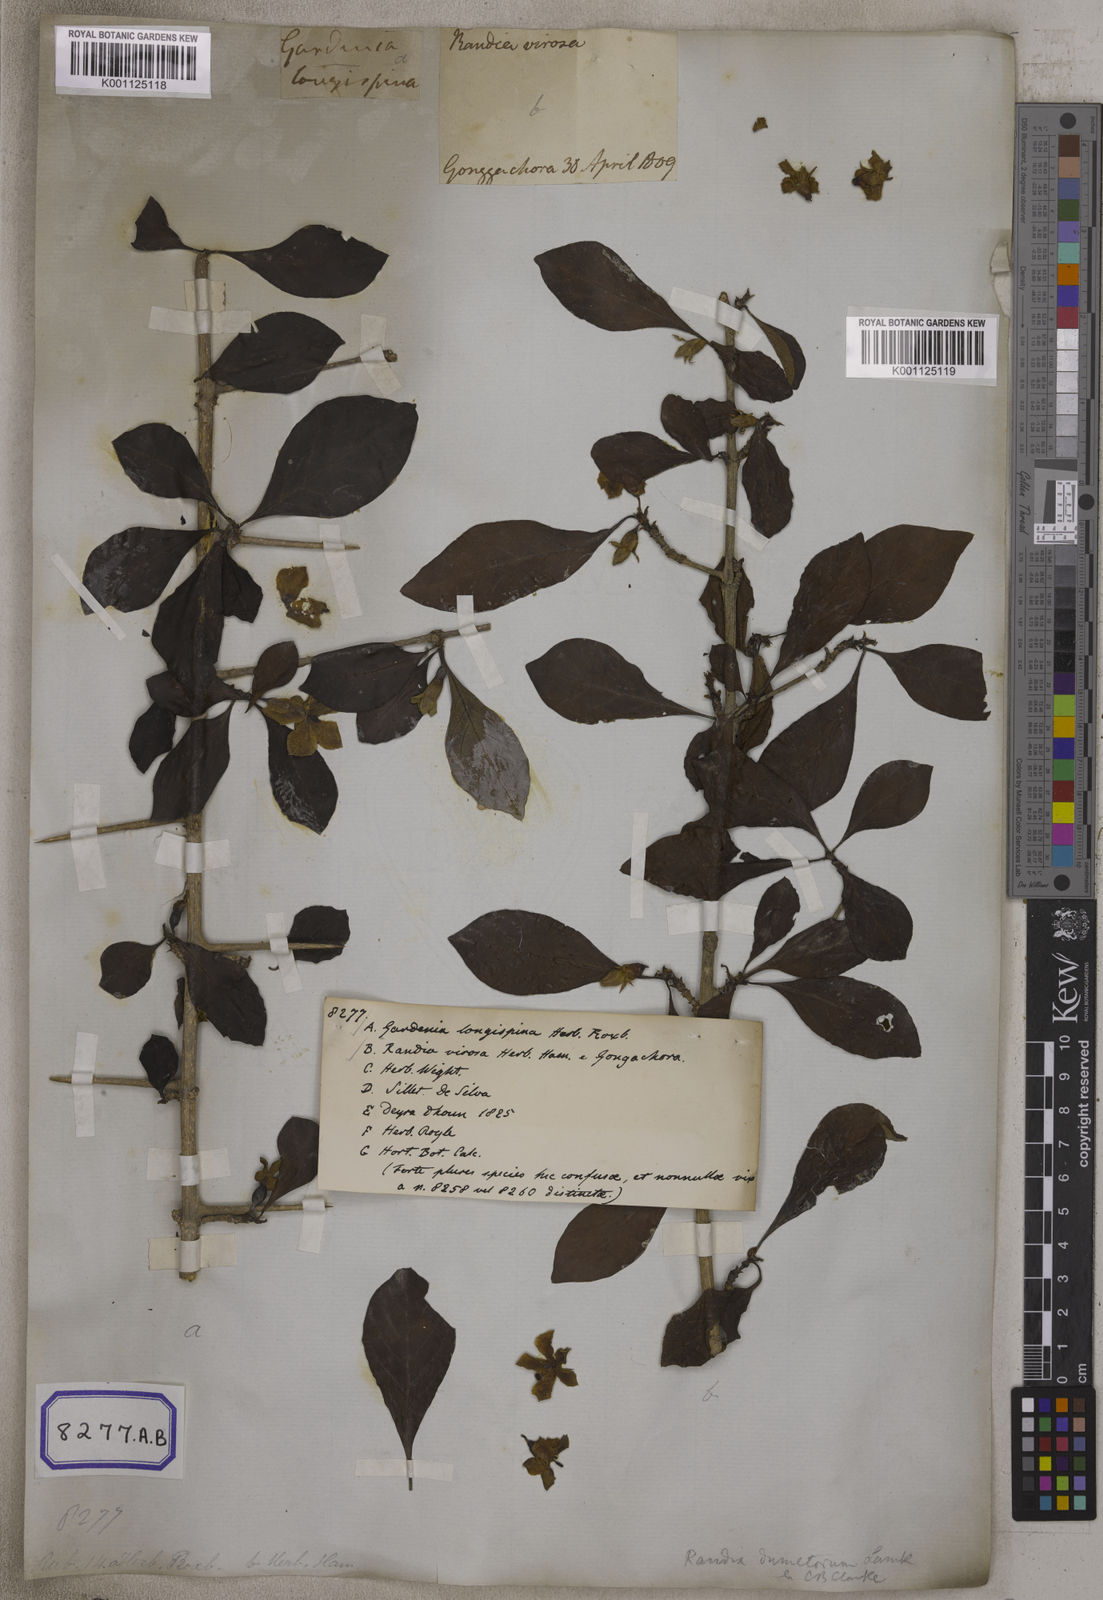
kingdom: Plantae
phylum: Tracheophyta
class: Magnoliopsida
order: Gentianales
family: Rubiaceae
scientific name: Rubiaceae
